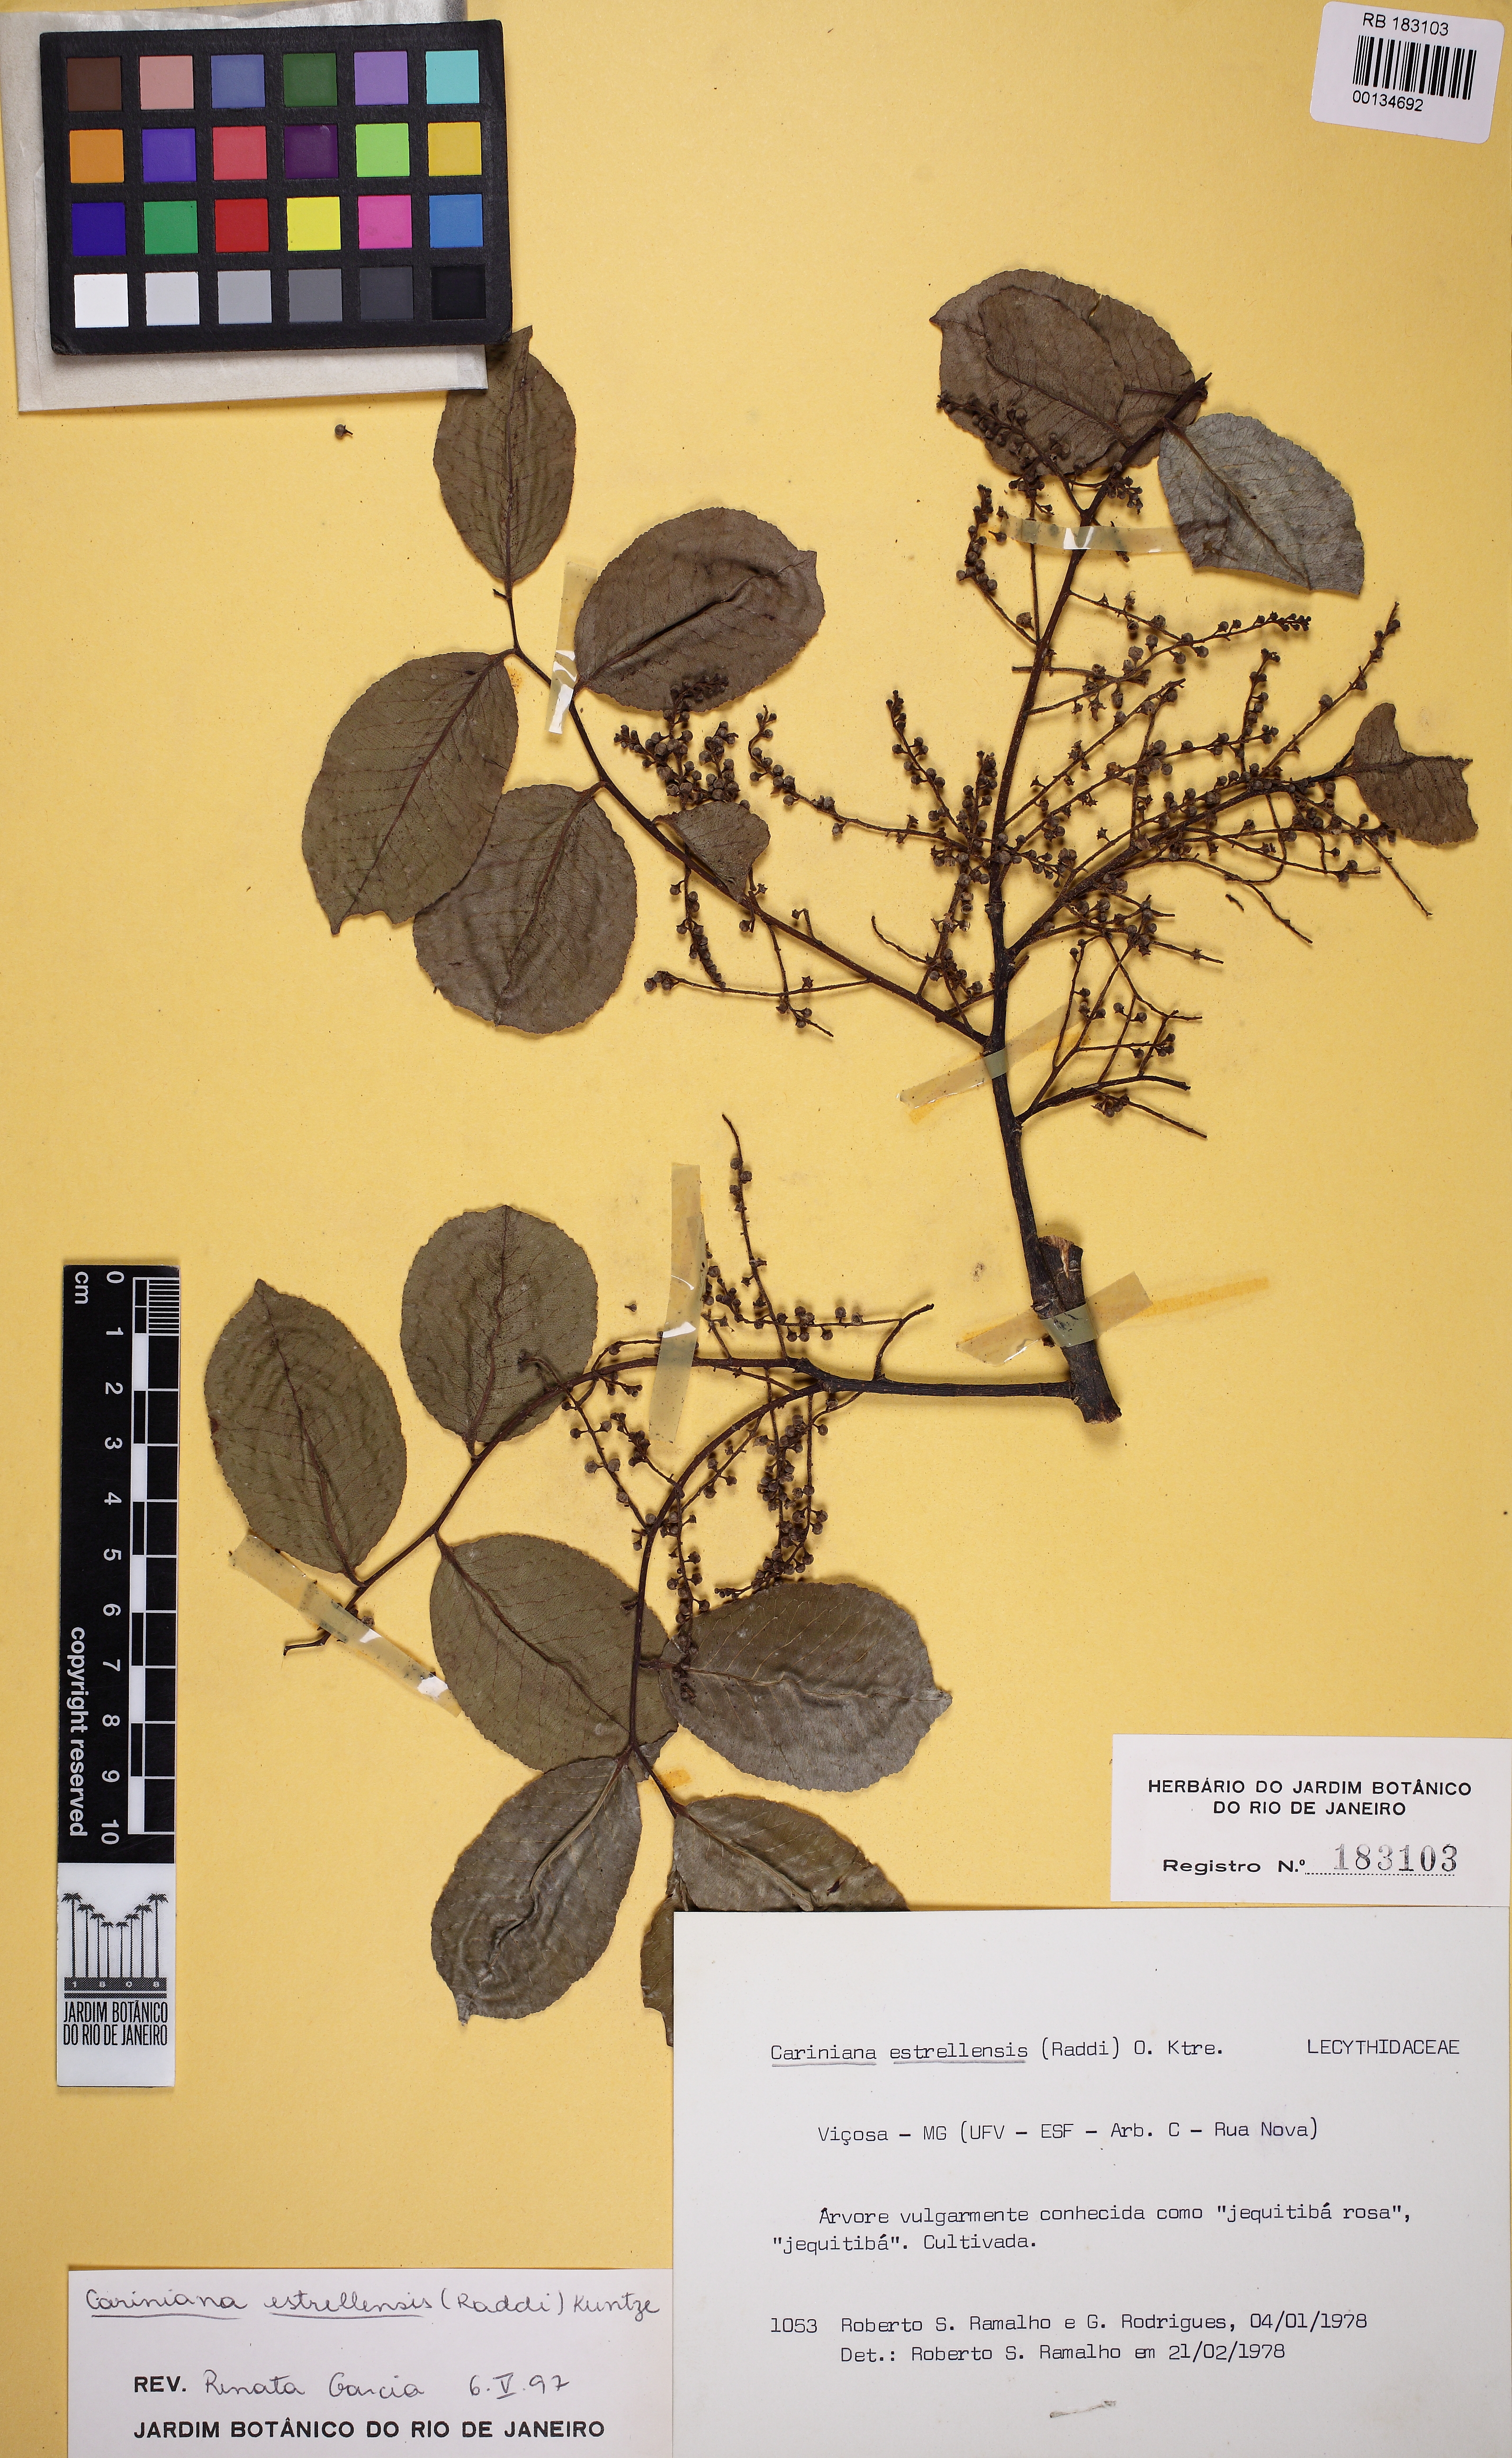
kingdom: Plantae
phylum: Tracheophyta
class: Magnoliopsida
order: Ericales
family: Lecythidaceae
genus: Cariniana
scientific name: Cariniana estrellensis
